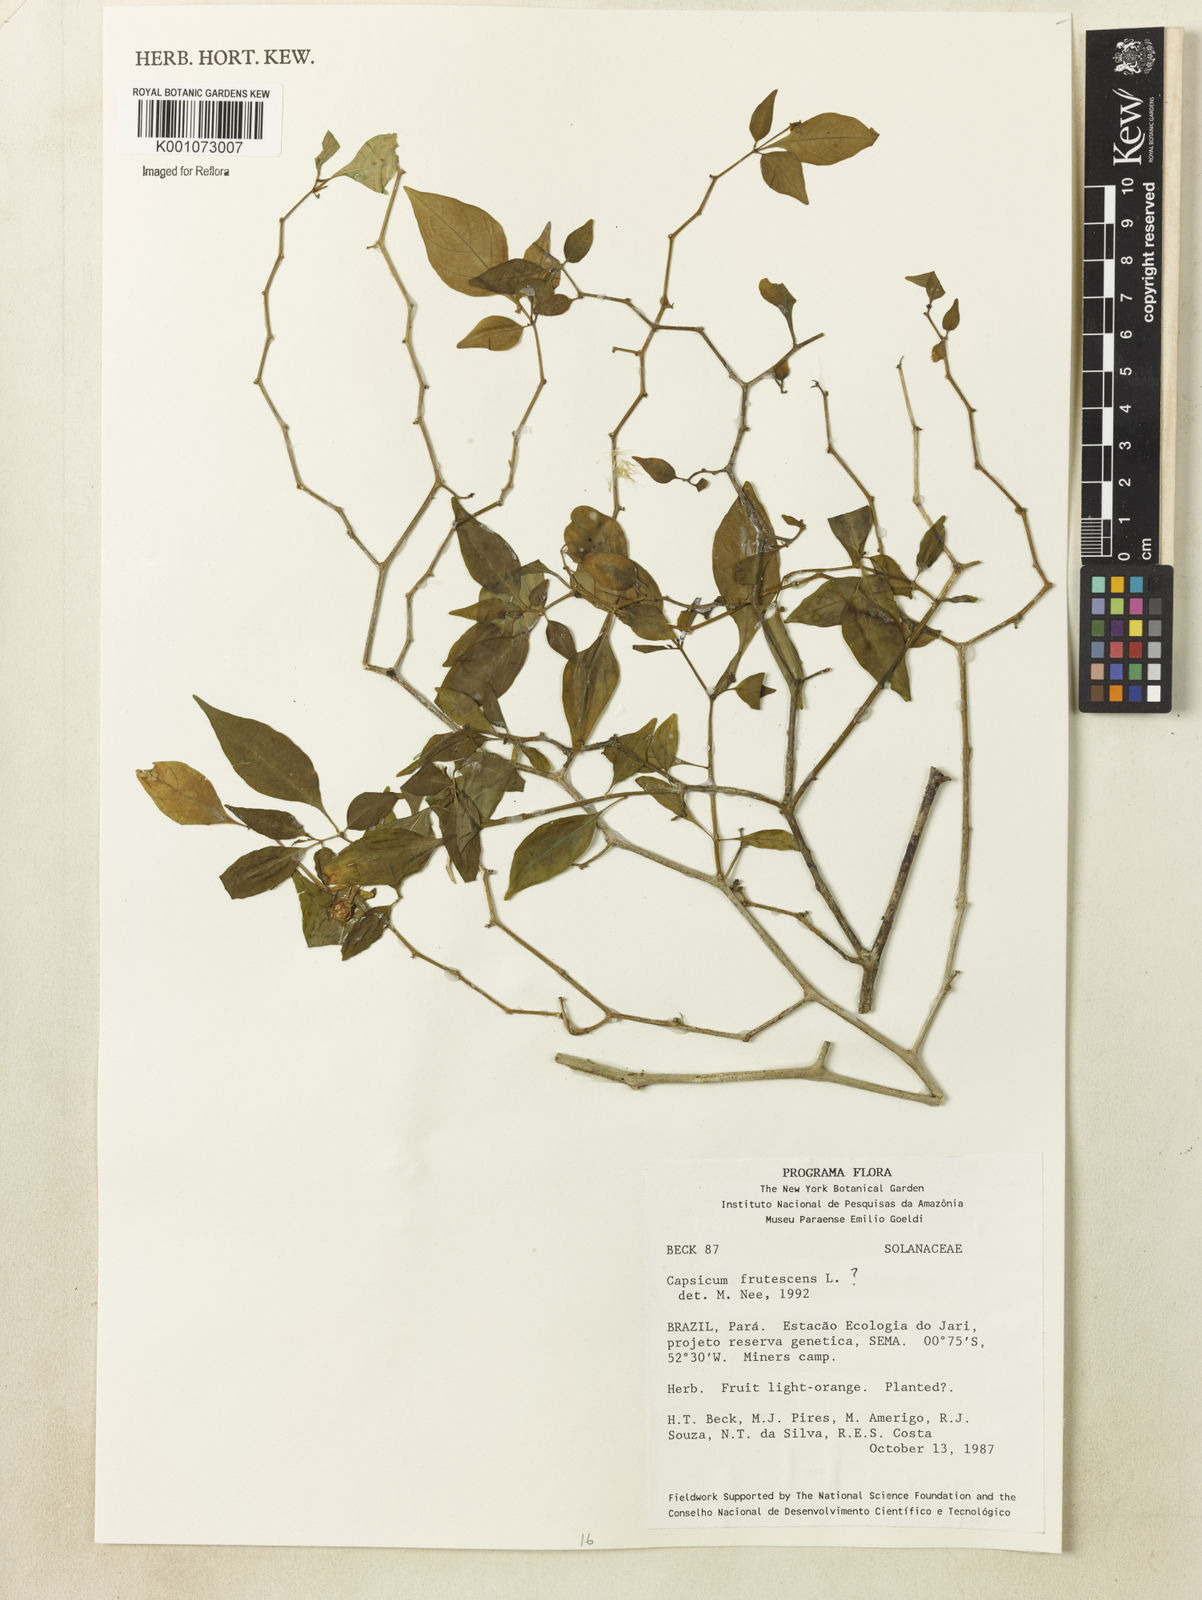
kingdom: Plantae
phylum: Tracheophyta
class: Magnoliopsida
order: Solanales
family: Solanaceae
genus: Capsicum
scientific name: Capsicum frutescens
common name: Bird pepper
